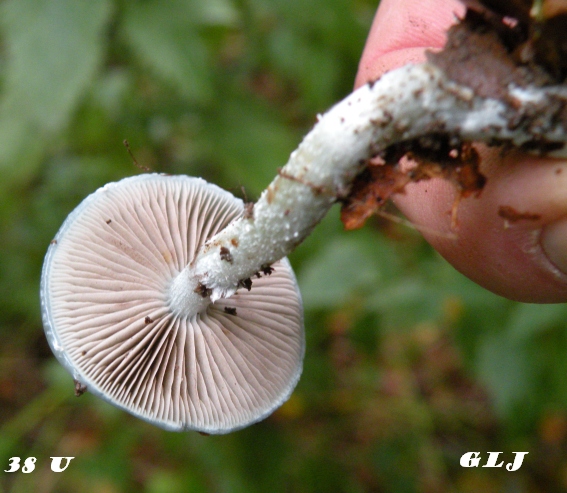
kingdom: Fungi
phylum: Basidiomycota
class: Agaricomycetes
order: Agaricales
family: Strophariaceae
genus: Stropharia
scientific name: Stropharia cyanea
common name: blågrøn bredblad
